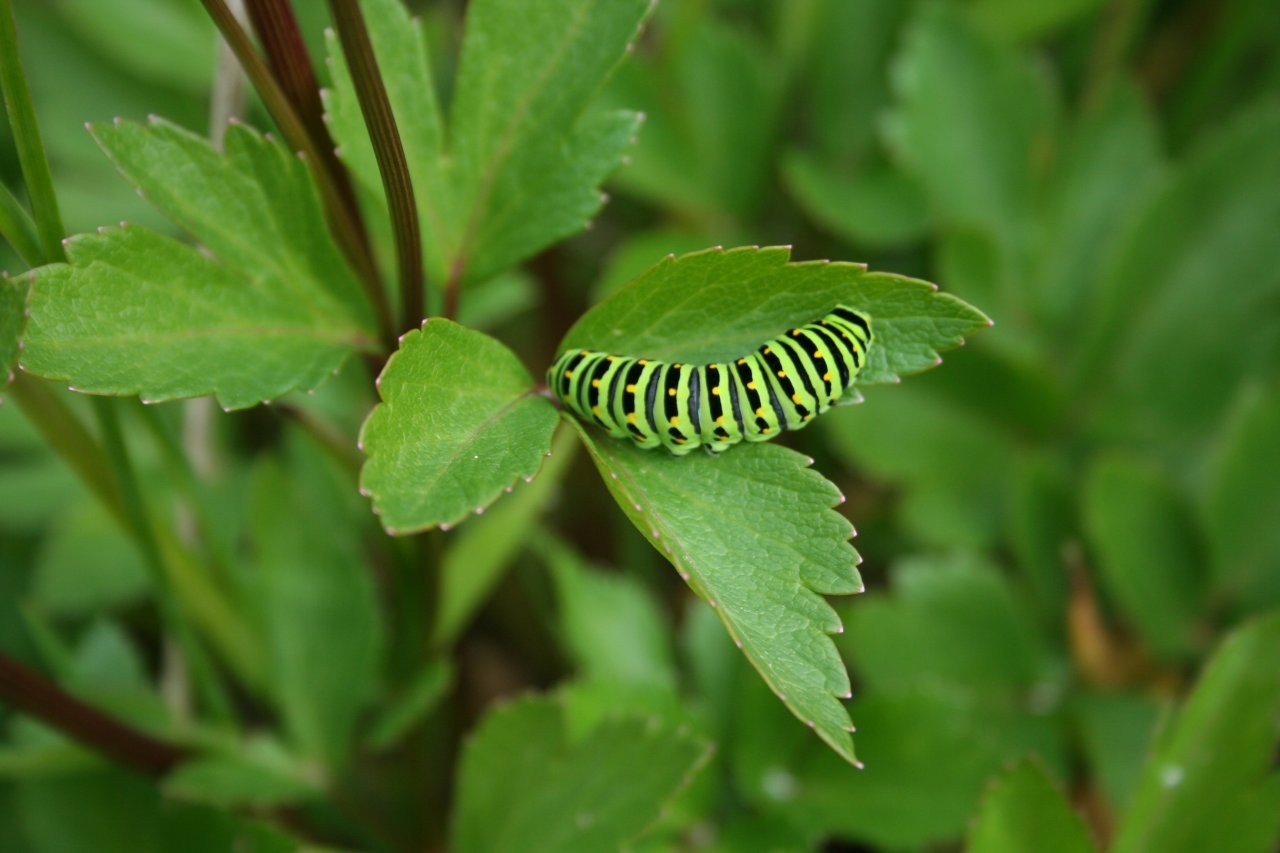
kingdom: Animalia
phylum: Arthropoda
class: Insecta
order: Lepidoptera
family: Papilionidae
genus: Papilio
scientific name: Papilio machaon
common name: Old World Swallowtail
